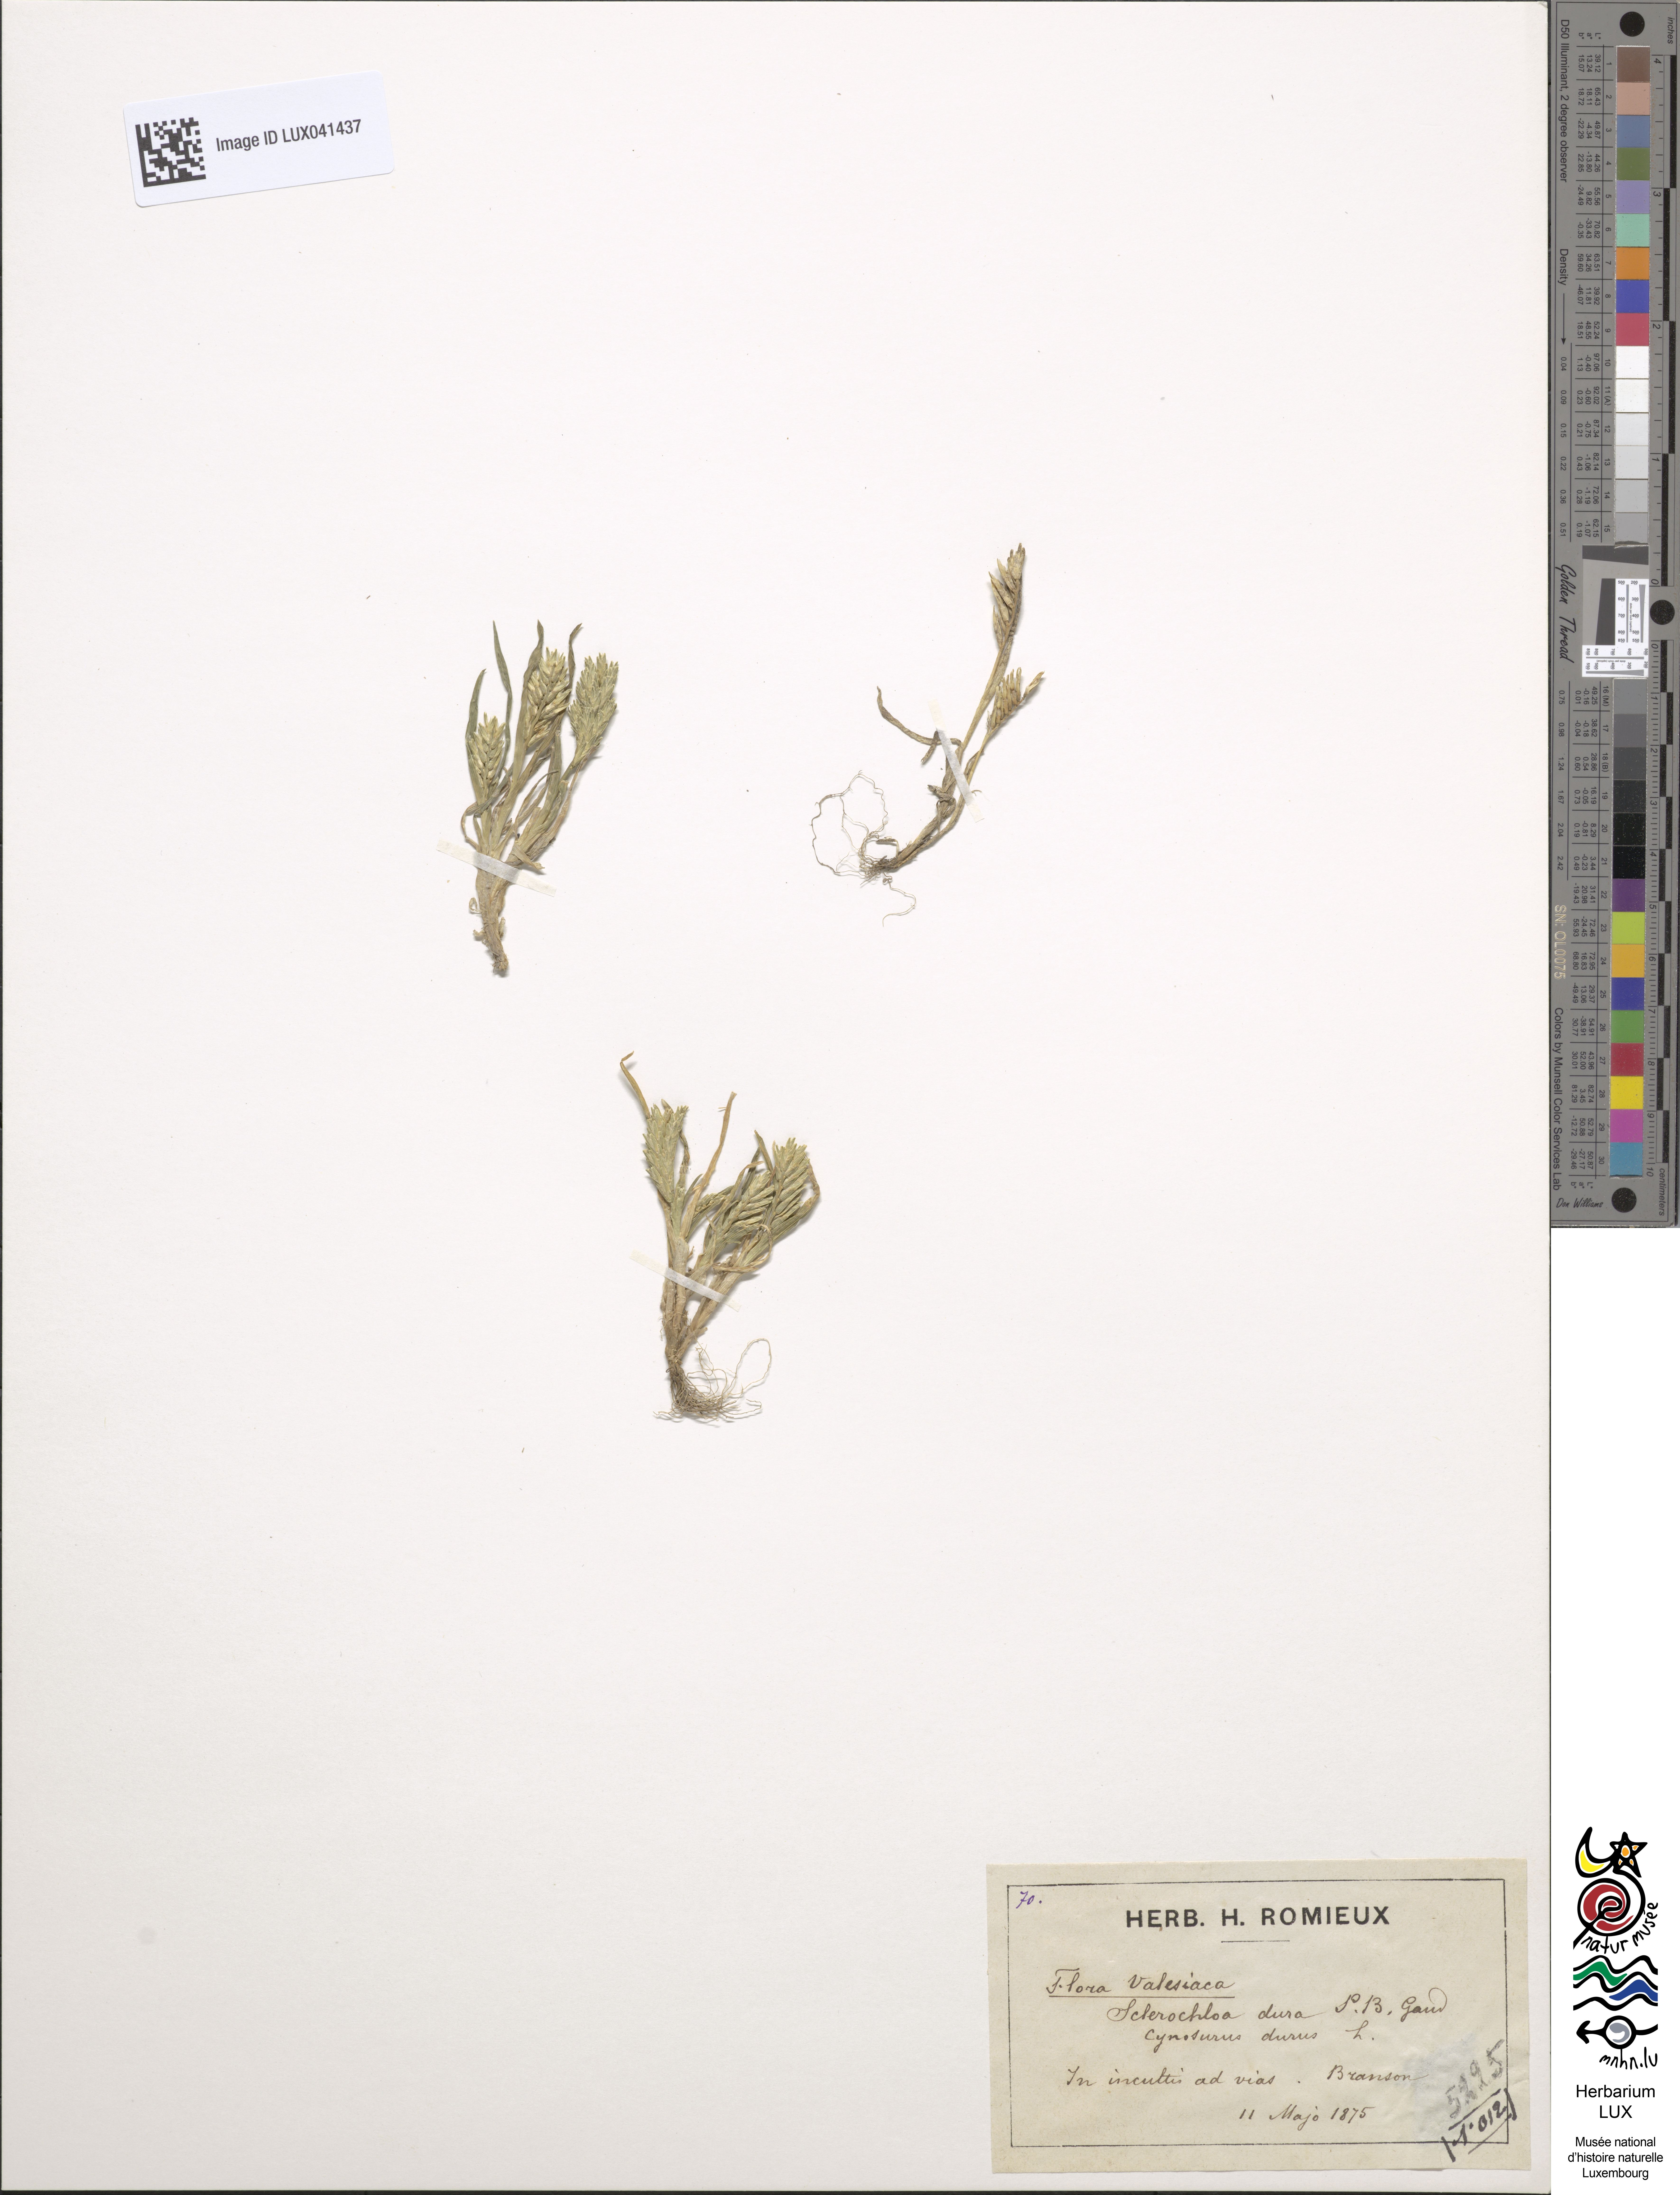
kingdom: Plantae
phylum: Tracheophyta
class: Liliopsida
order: Poales
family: Poaceae
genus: Sclerochloa
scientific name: Sclerochloa dura
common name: Common hardgrass
